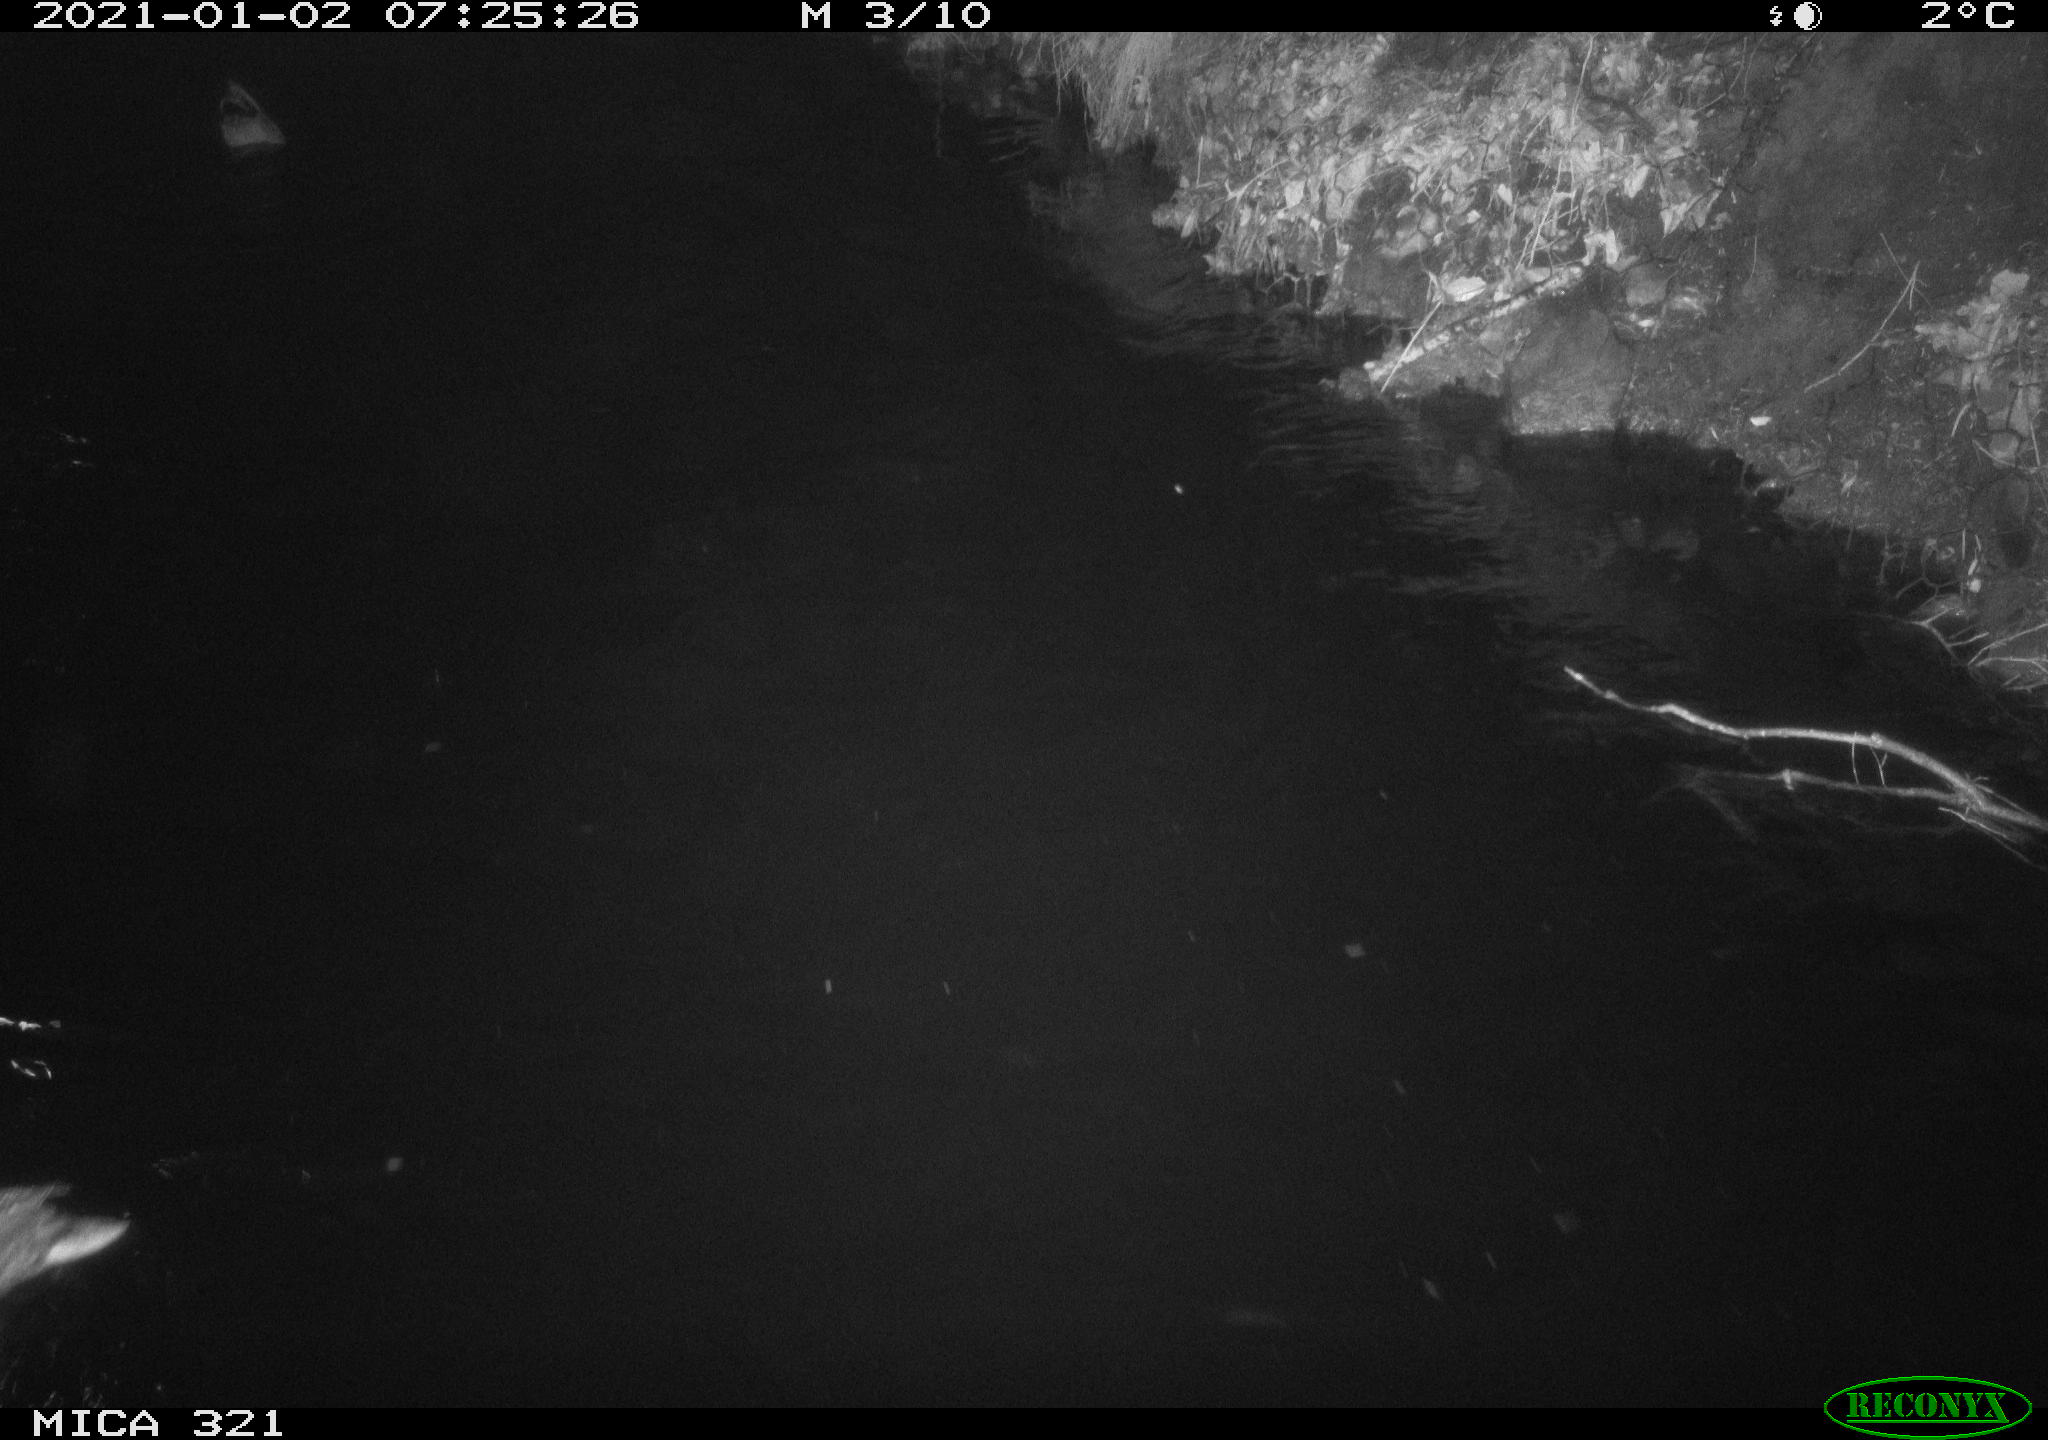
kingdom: Animalia
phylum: Chordata
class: Aves
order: Anseriformes
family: Anatidae
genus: Anas
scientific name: Anas platyrhynchos
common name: Mallard
